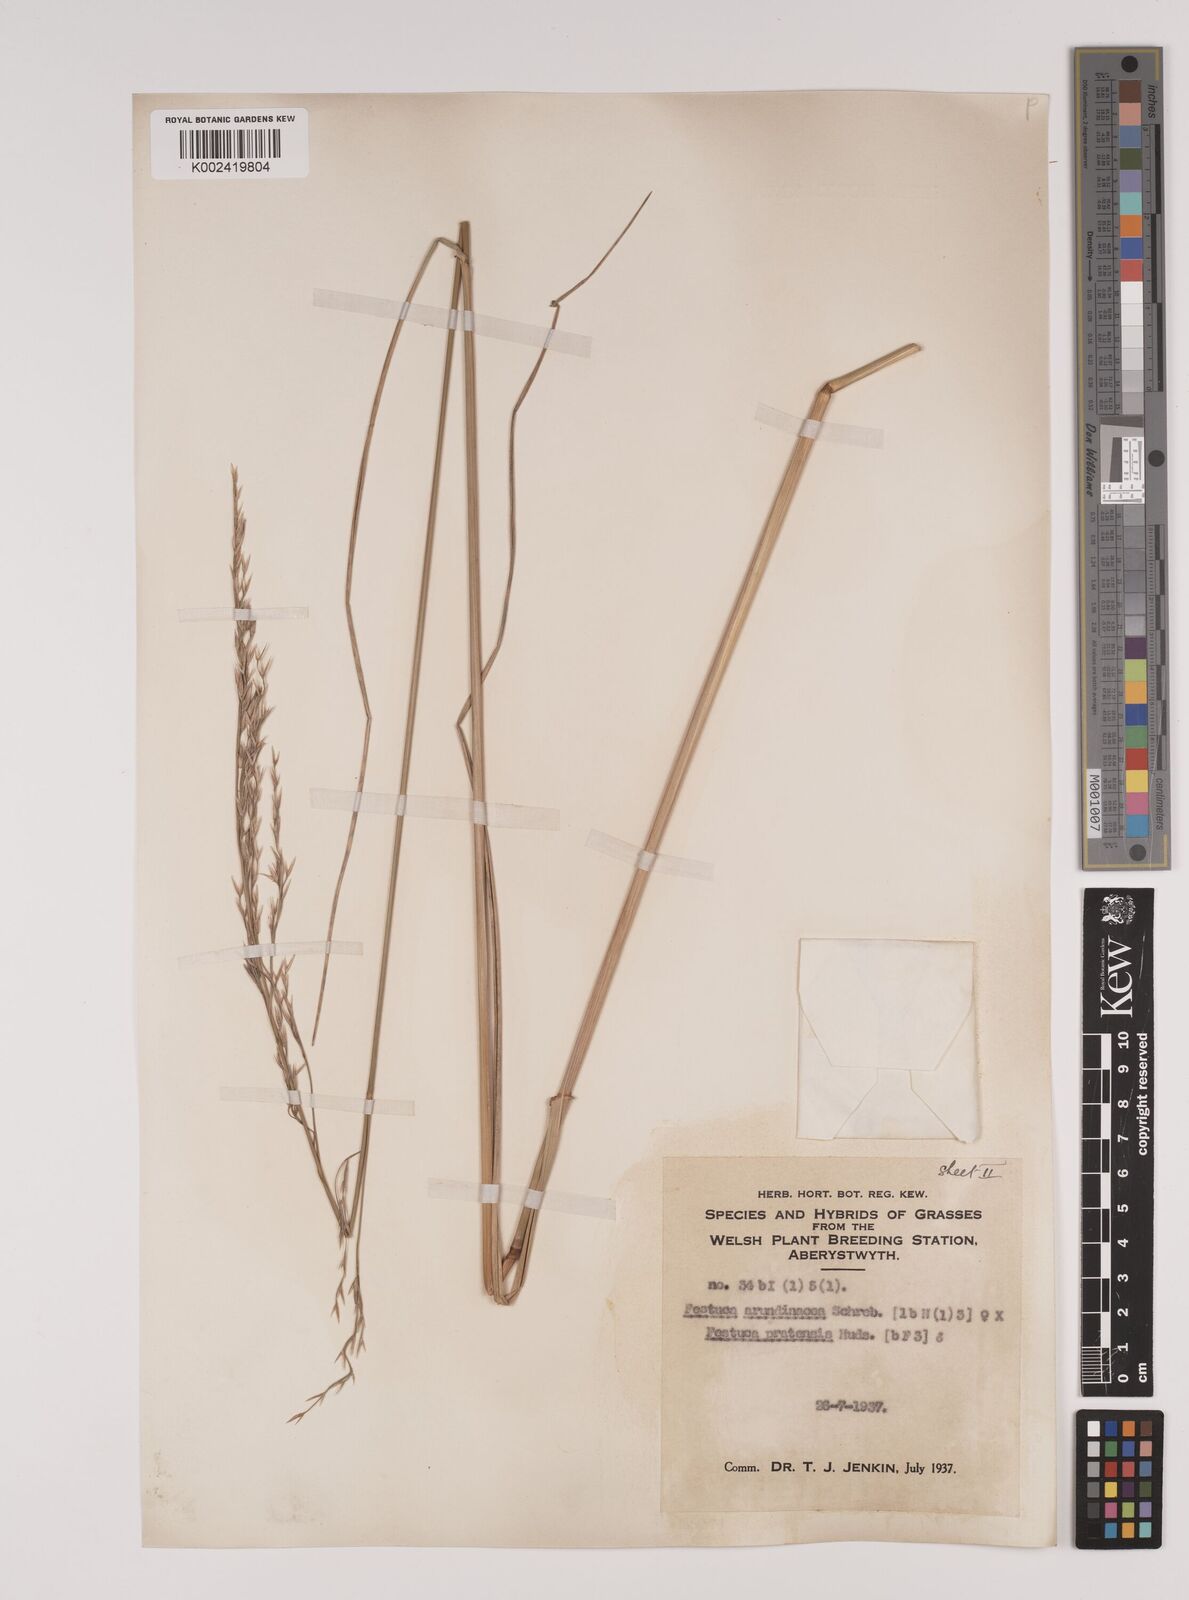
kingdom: Plantae
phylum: Tracheophyta
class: Liliopsida
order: Poales
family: Poaceae
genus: Festuca
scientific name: Festuca rubra
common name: Red fescue
